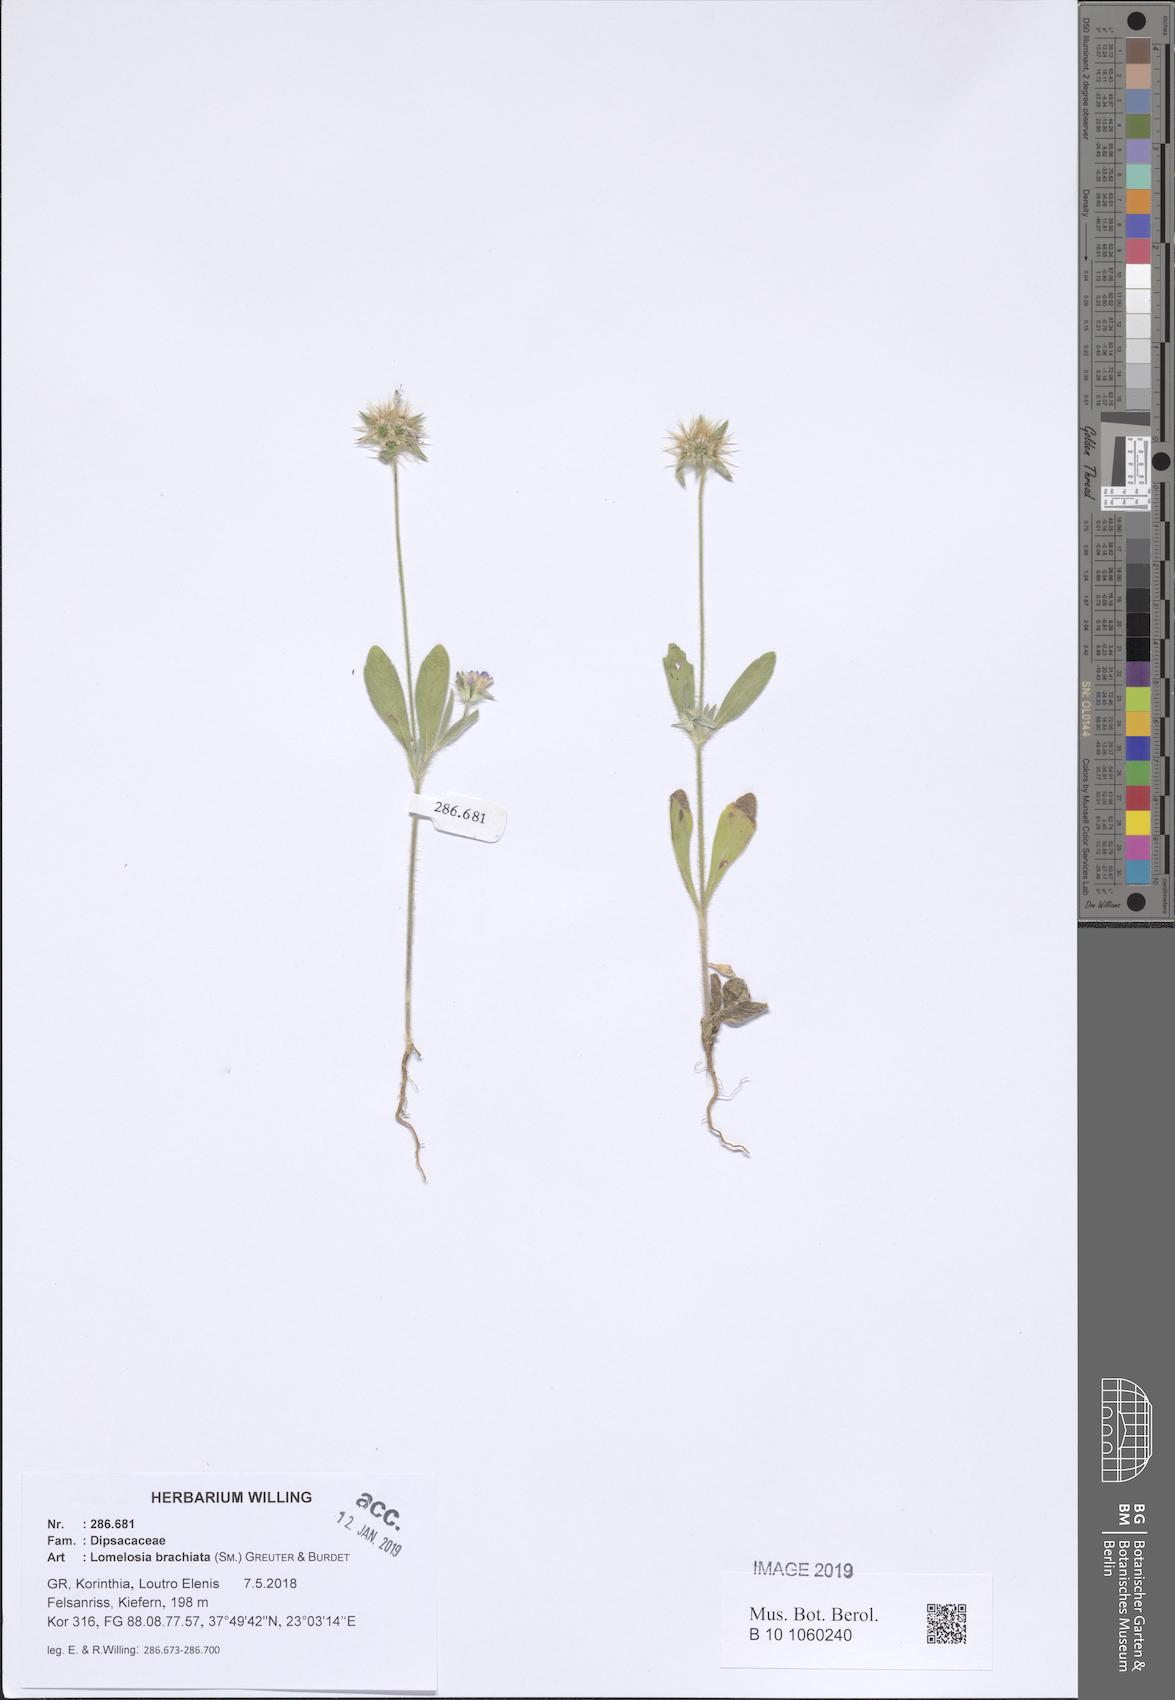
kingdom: Plantae
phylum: Tracheophyta
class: Magnoliopsida
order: Dipsacales
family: Caprifoliaceae
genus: Lomelosia
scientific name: Lomelosia brachiata
